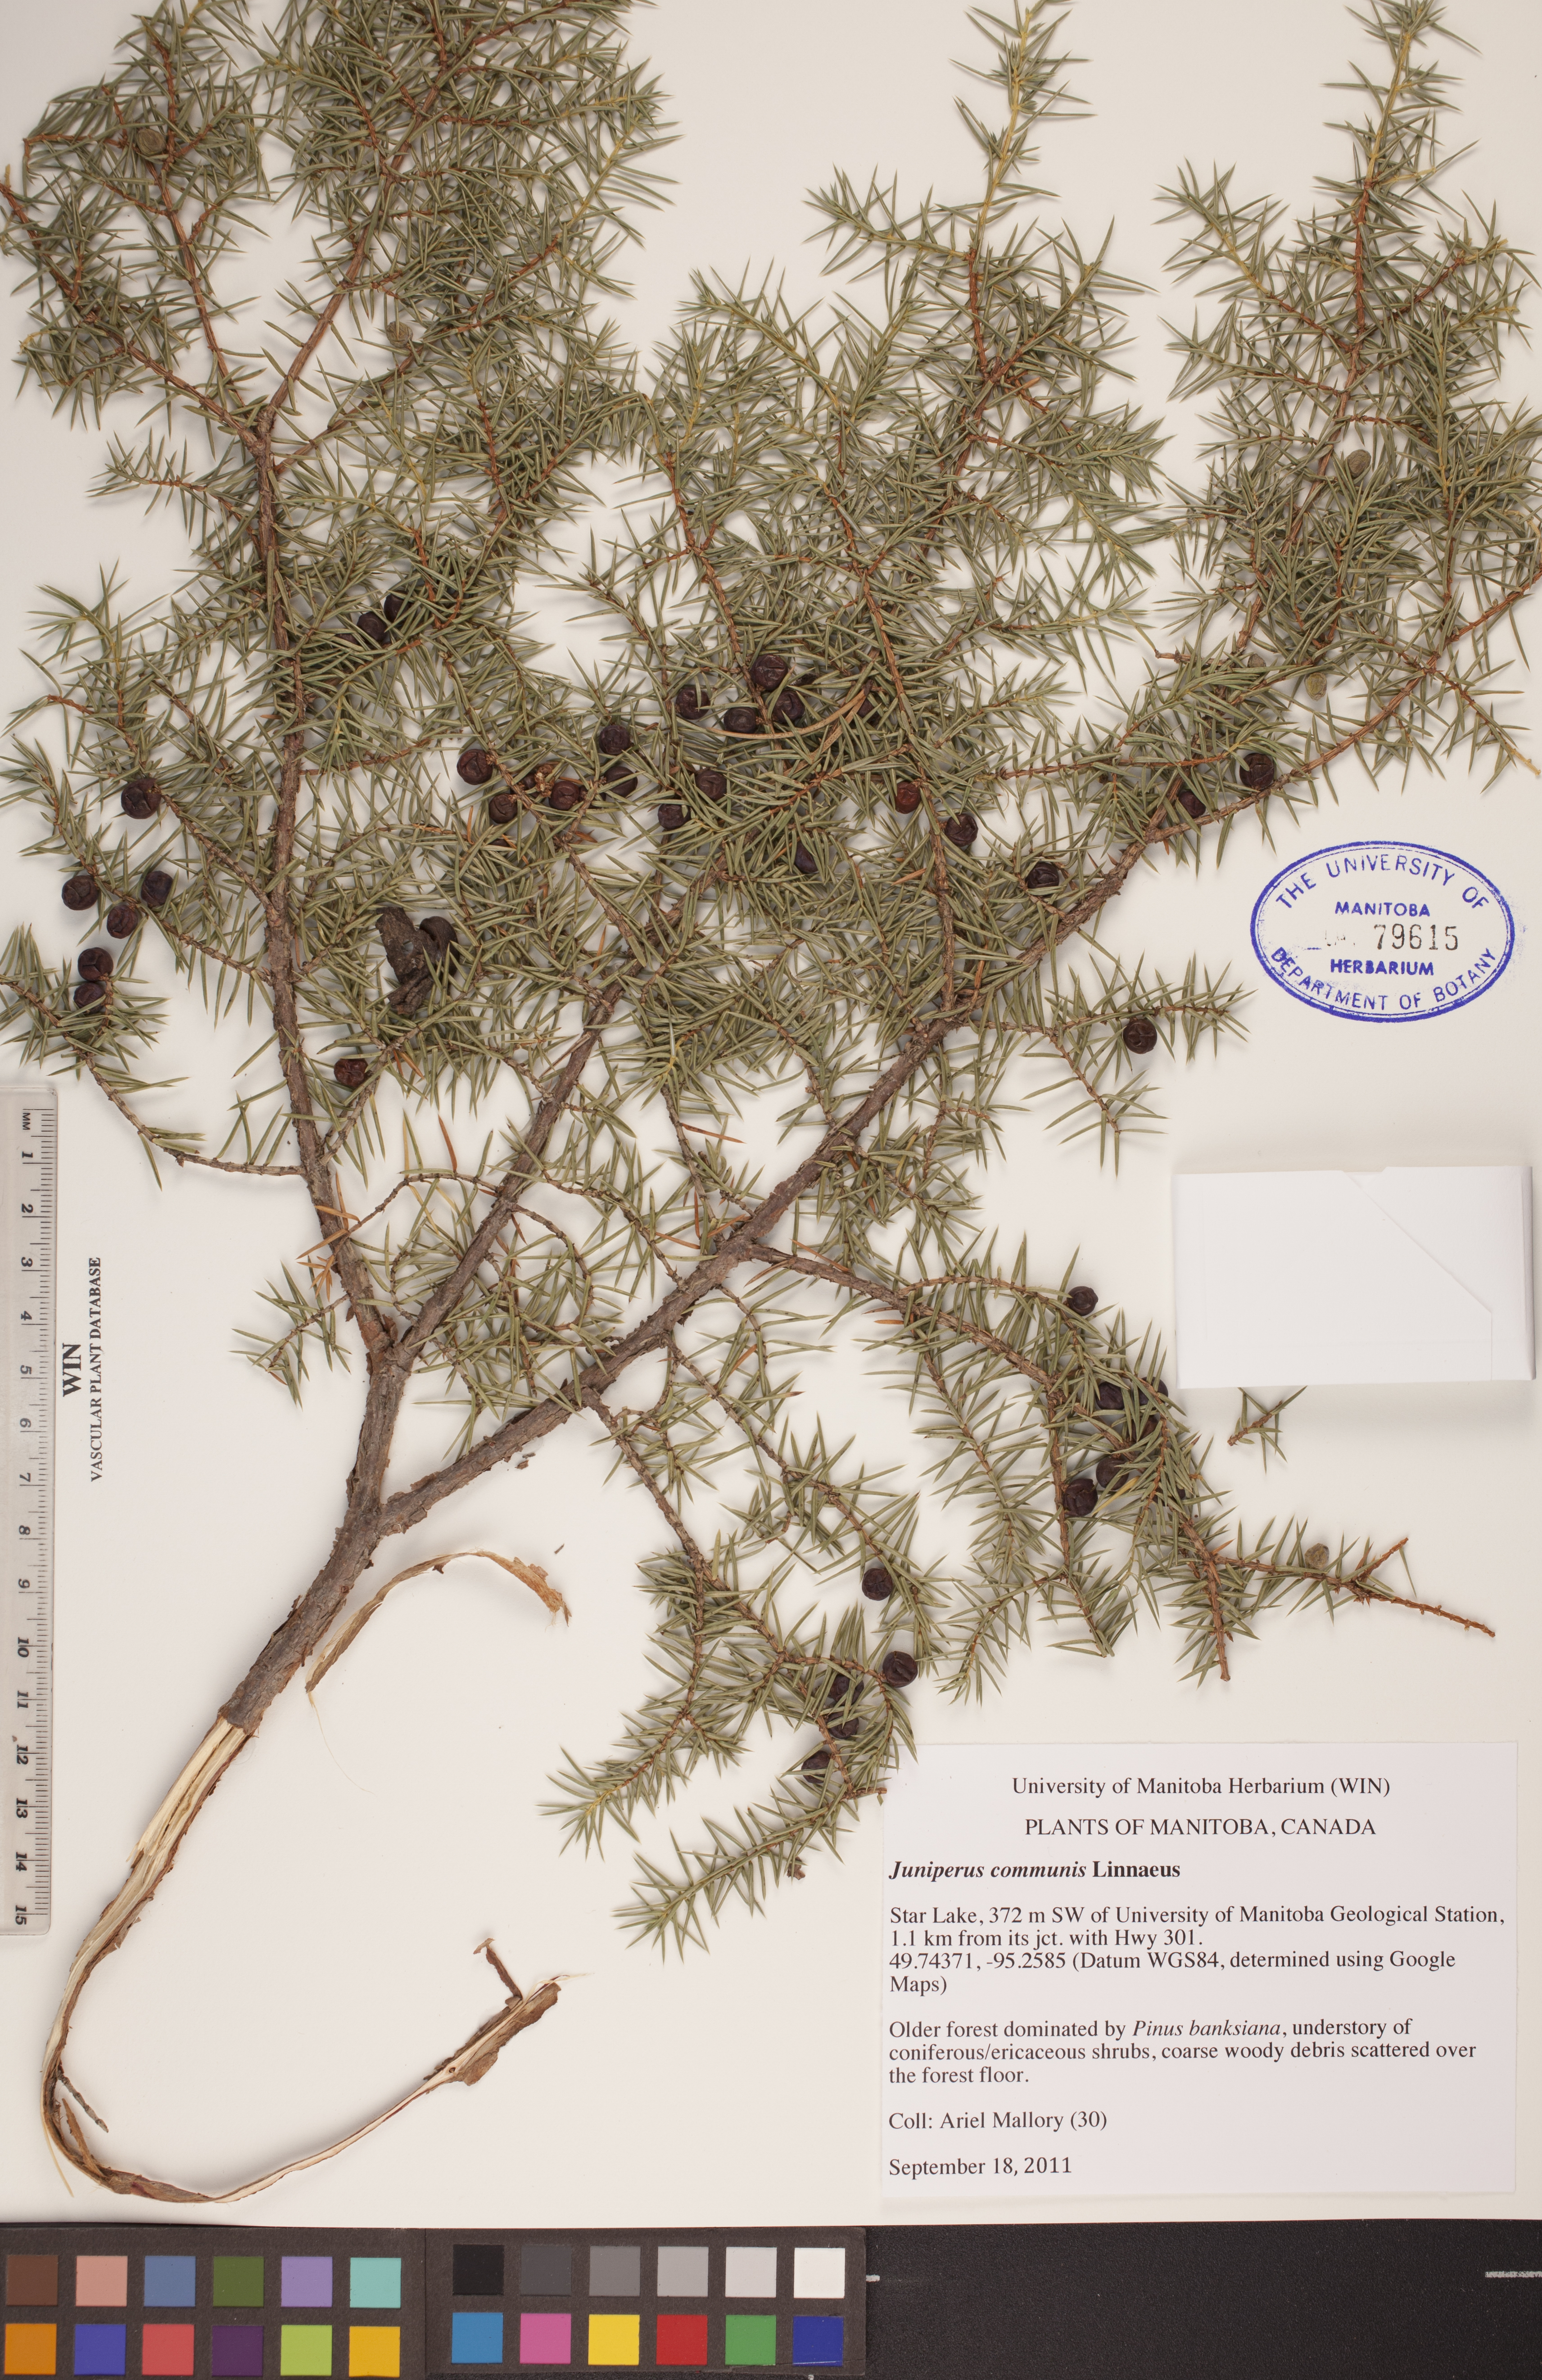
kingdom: Plantae
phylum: Tracheophyta
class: Pinopsida
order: Pinales
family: Cupressaceae
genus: Juniperus
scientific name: Juniperus communis
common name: Common juniper
